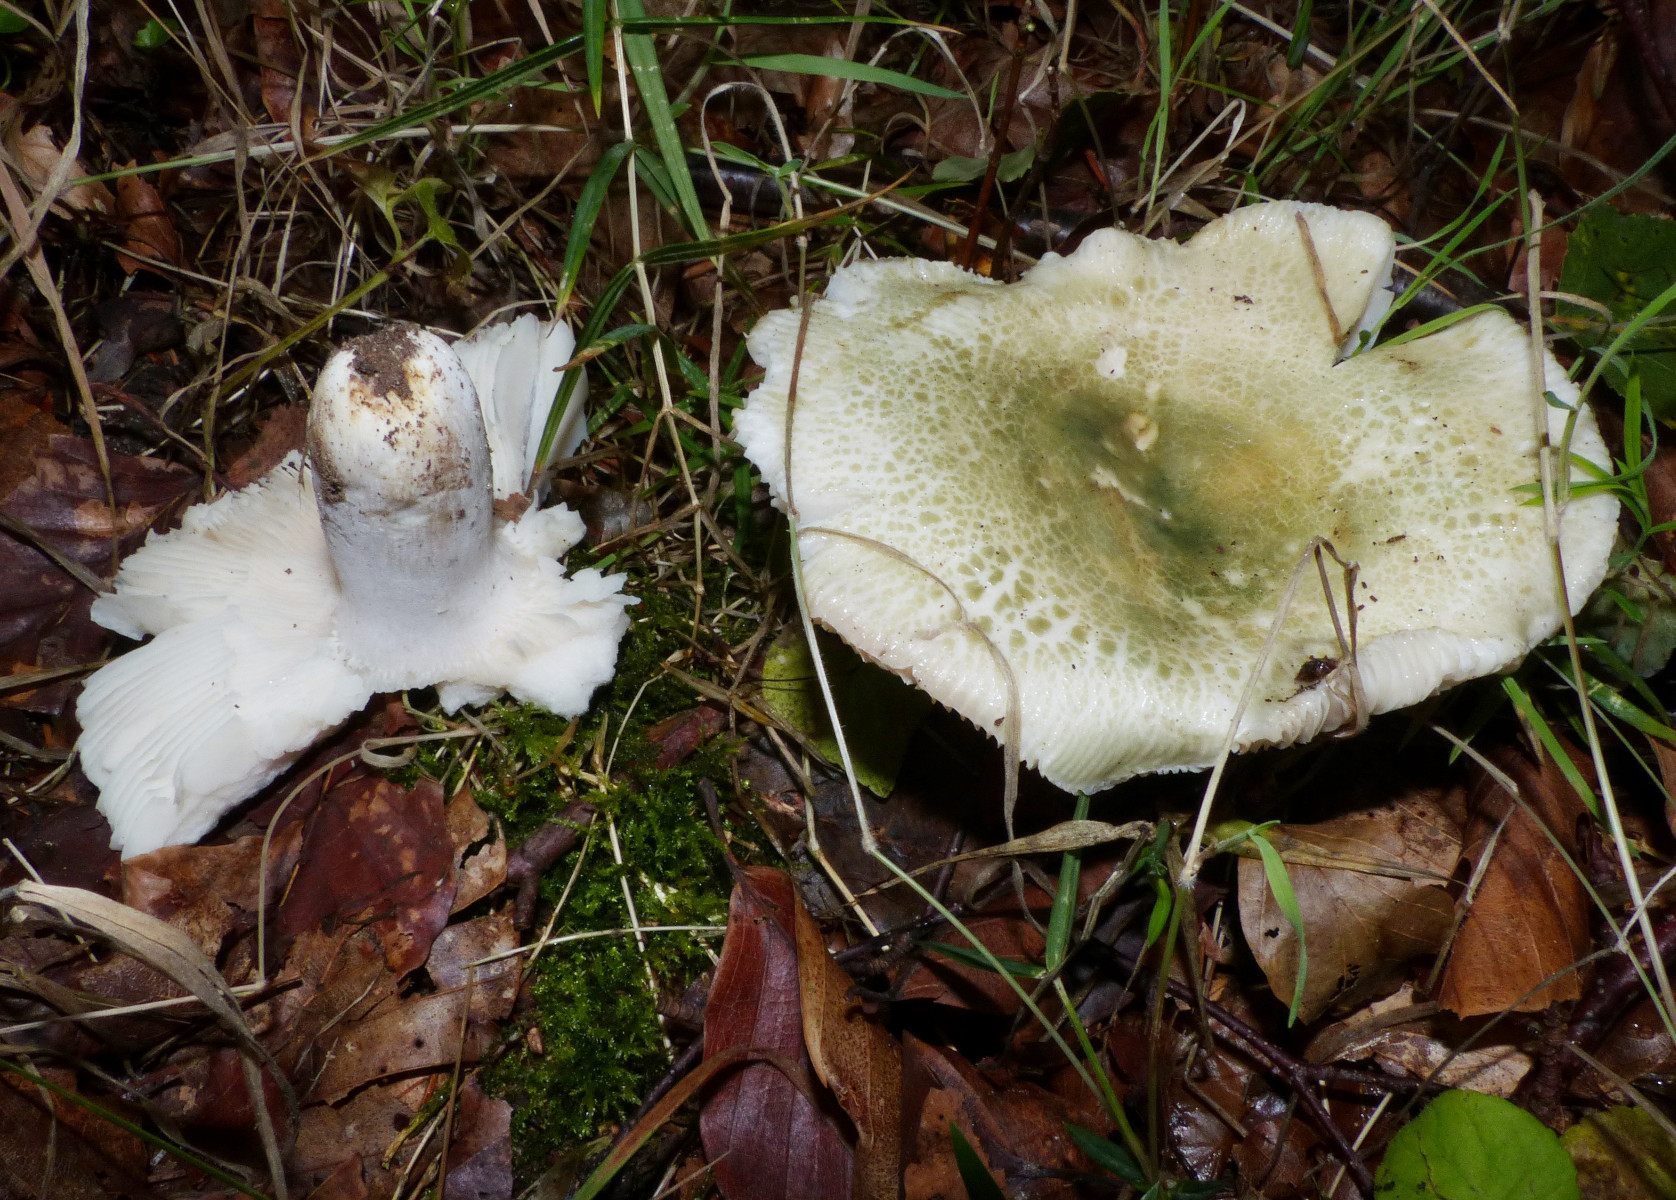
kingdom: Fungi
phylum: Basidiomycota
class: Agaricomycetes
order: Russulales
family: Russulaceae
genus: Russula
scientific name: Russula virescens
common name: spanskgrøn skørhat
